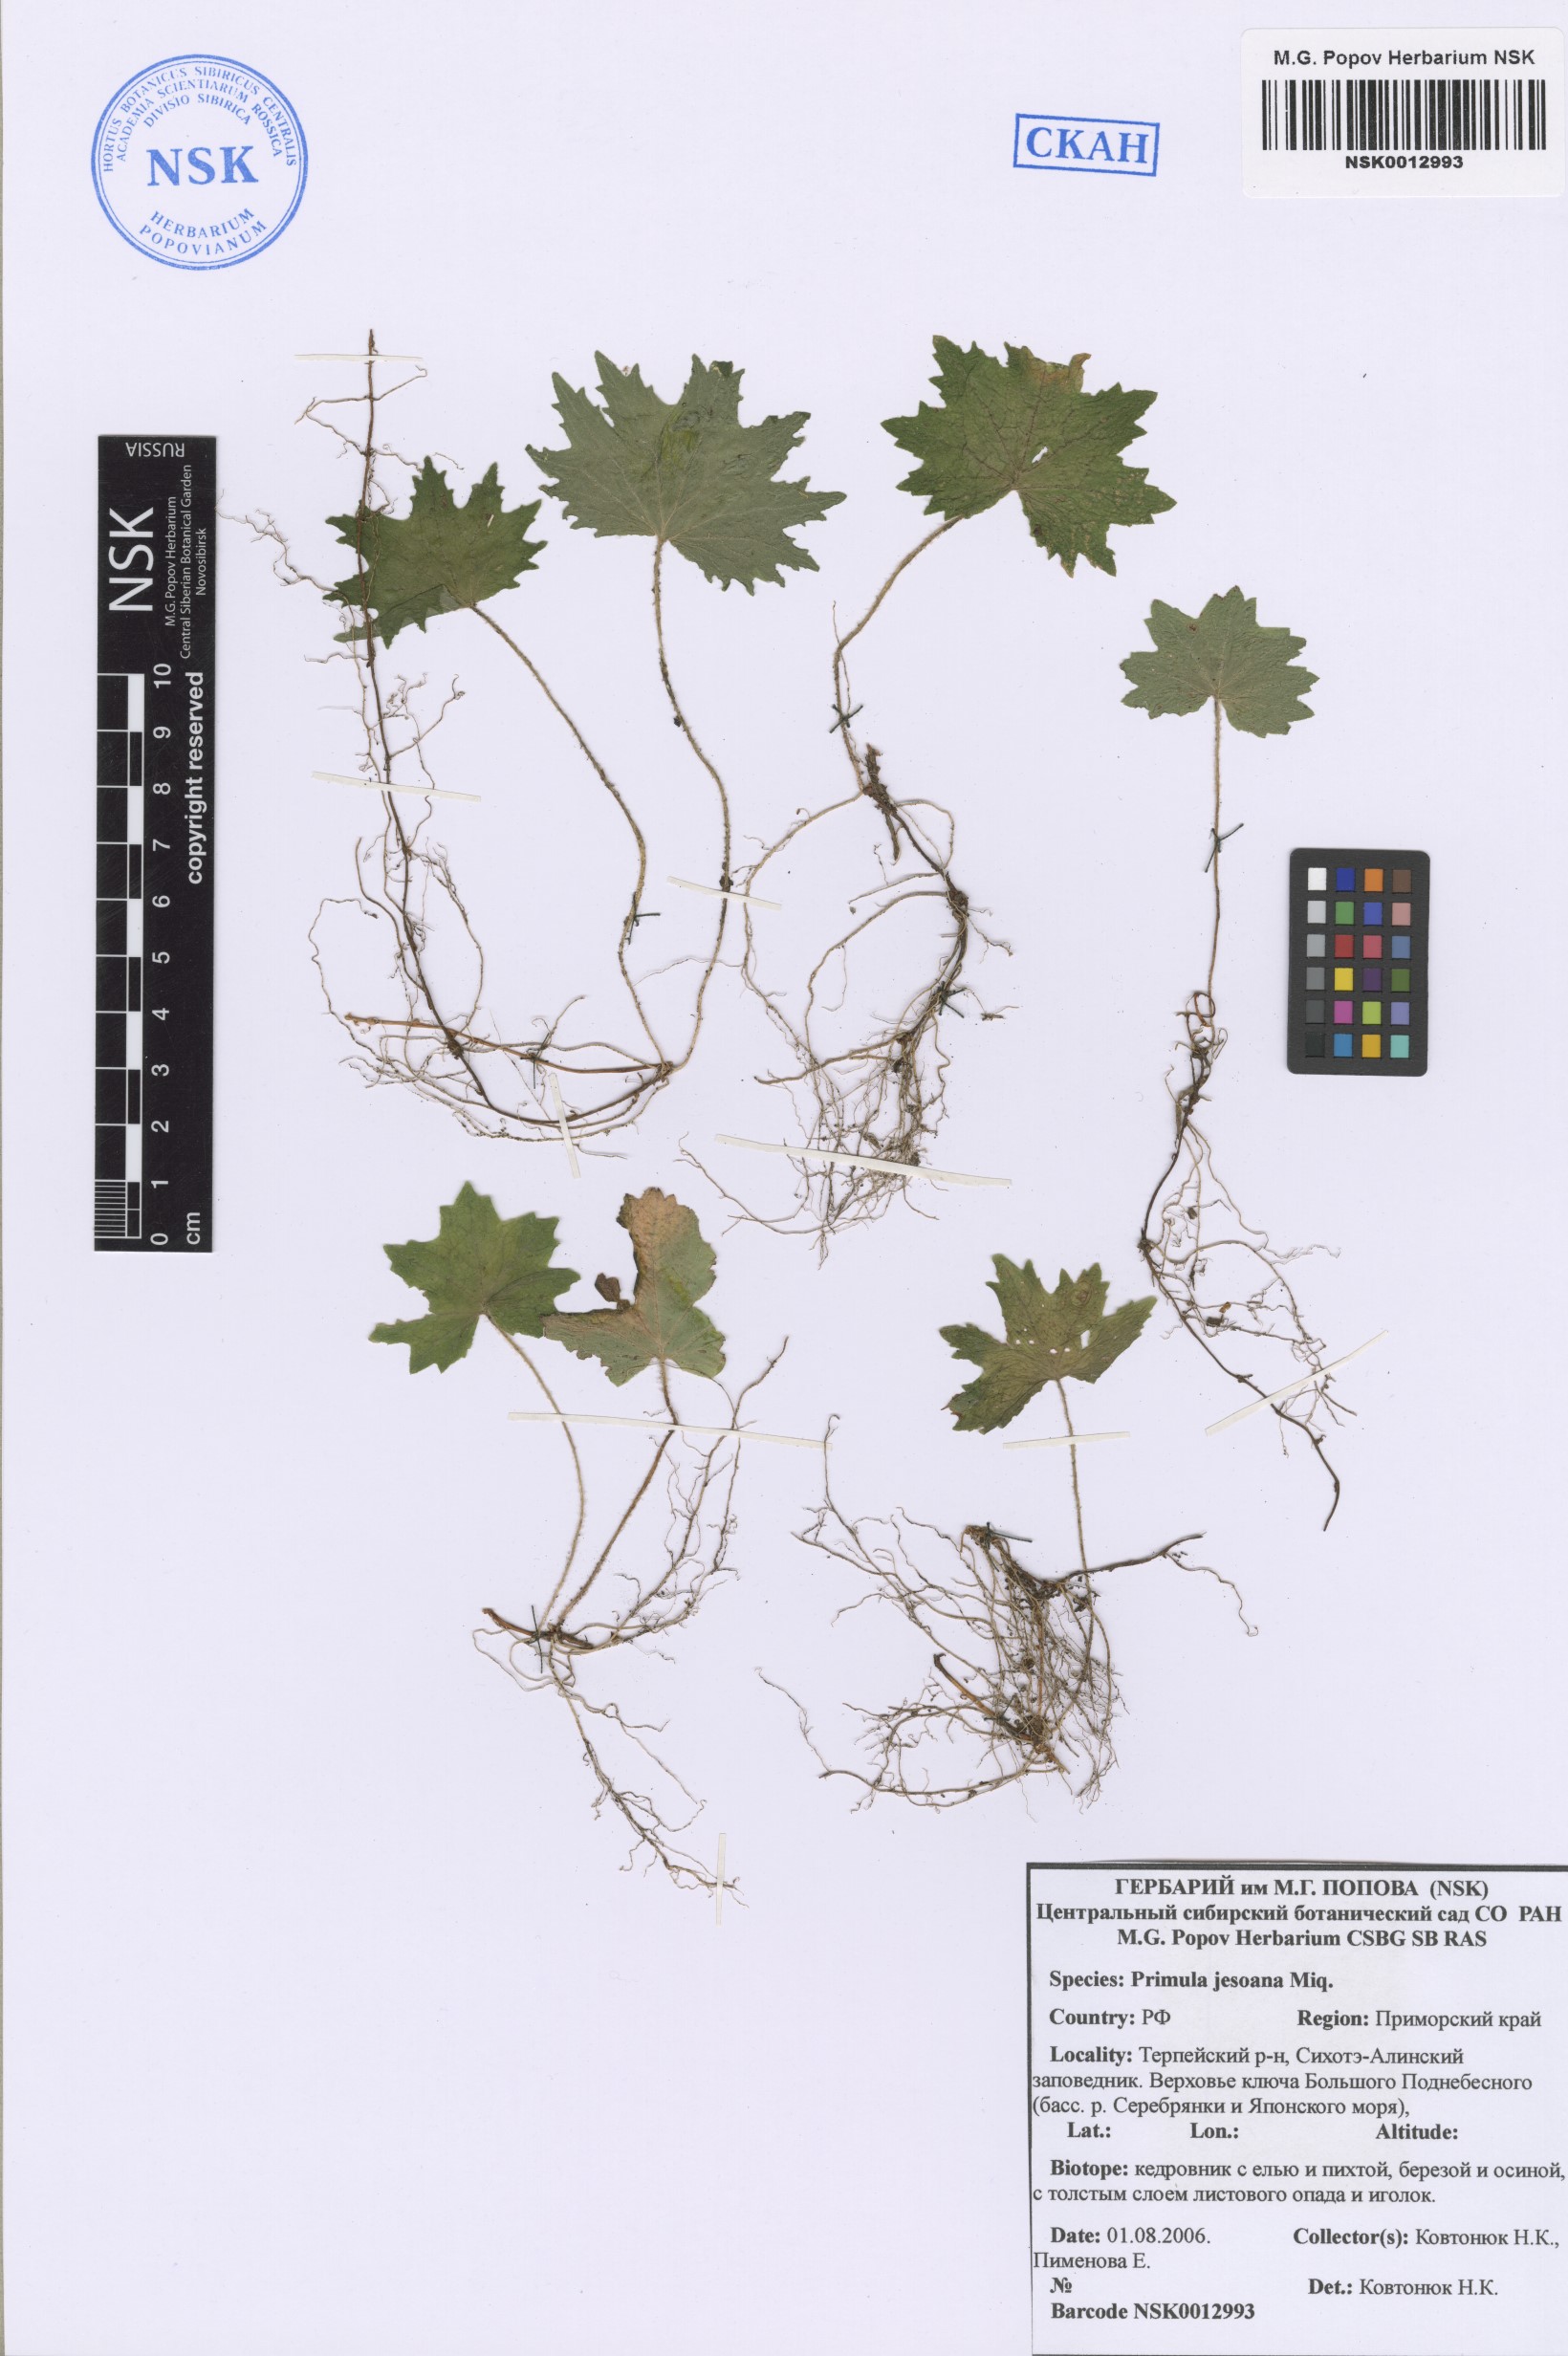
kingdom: Plantae
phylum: Tracheophyta
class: Magnoliopsida
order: Ericales
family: Primulaceae
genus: Primula
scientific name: Primula jesoana
